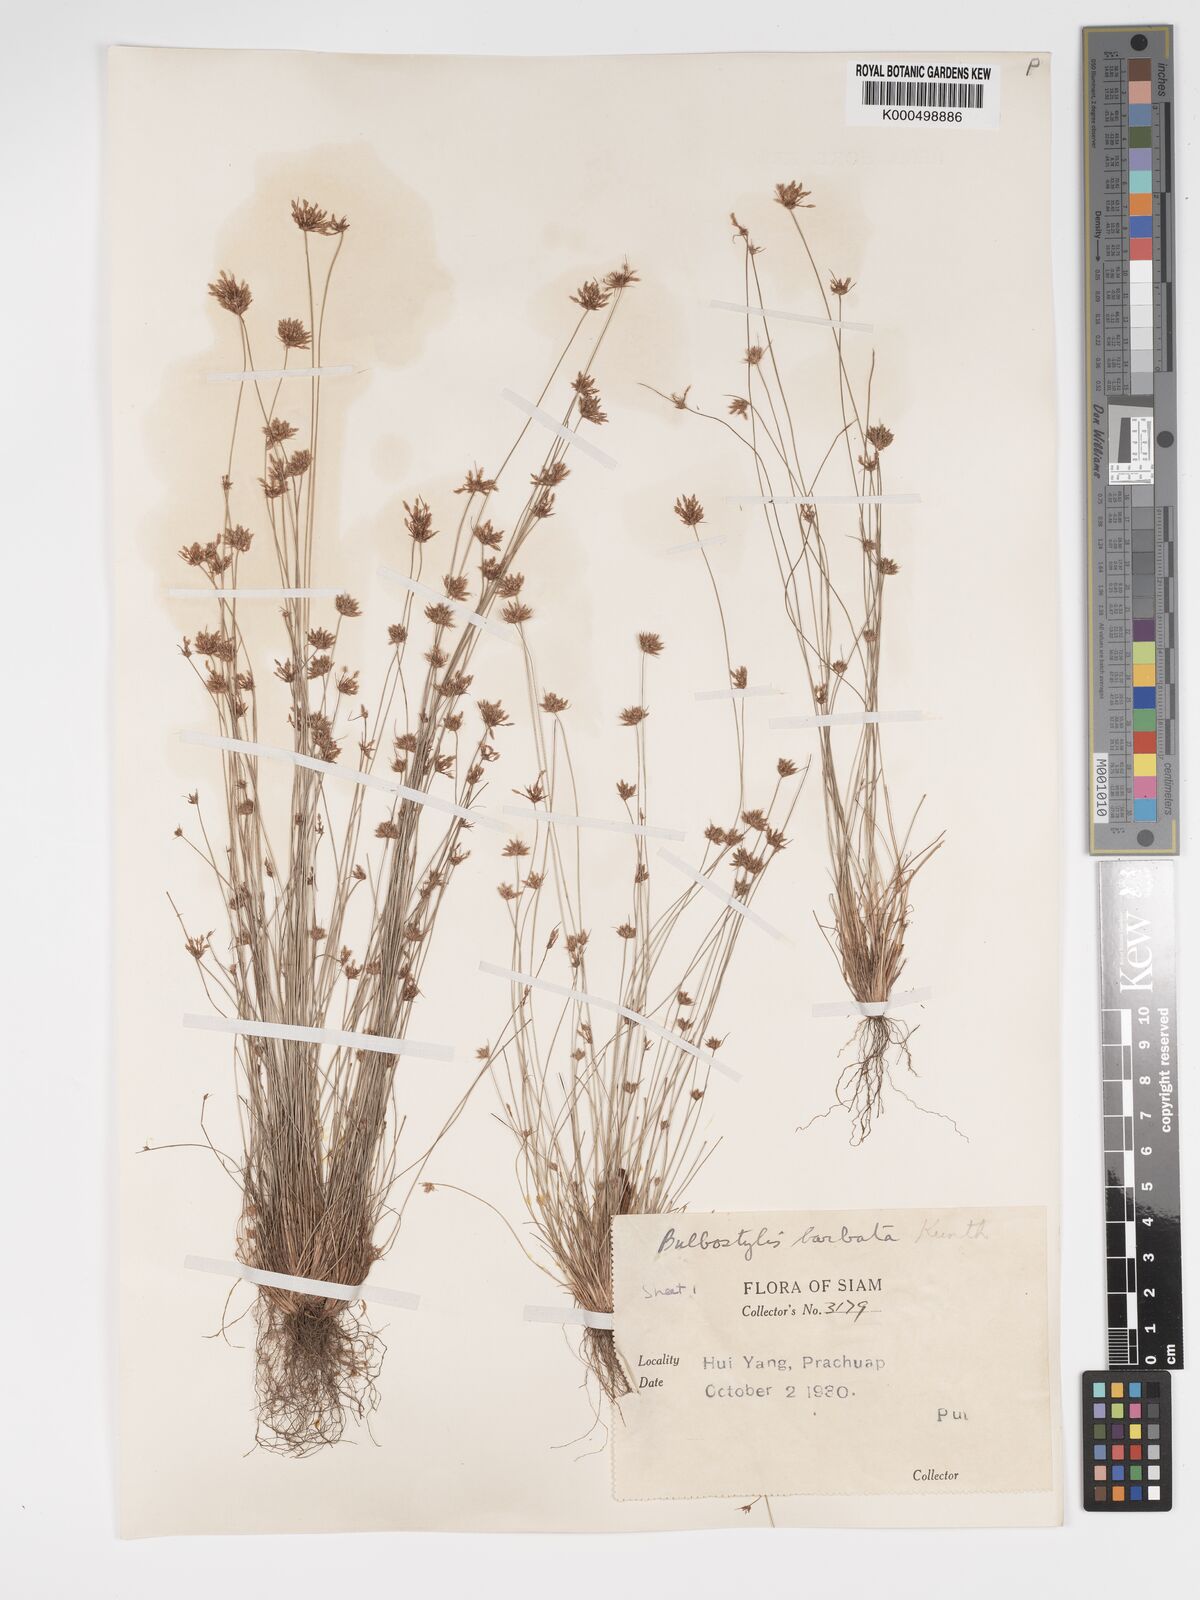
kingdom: Plantae
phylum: Tracheophyta
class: Liliopsida
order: Poales
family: Cyperaceae
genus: Bulbostylis
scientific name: Bulbostylis barbata
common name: Watergrass
